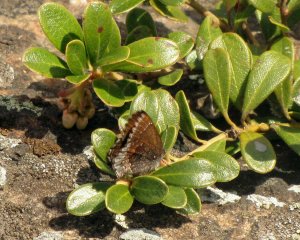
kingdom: Animalia
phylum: Arthropoda
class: Insecta
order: Lepidoptera
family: Lycaenidae
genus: Callophrys
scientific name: Callophrys polios
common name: Hoary Elfin
